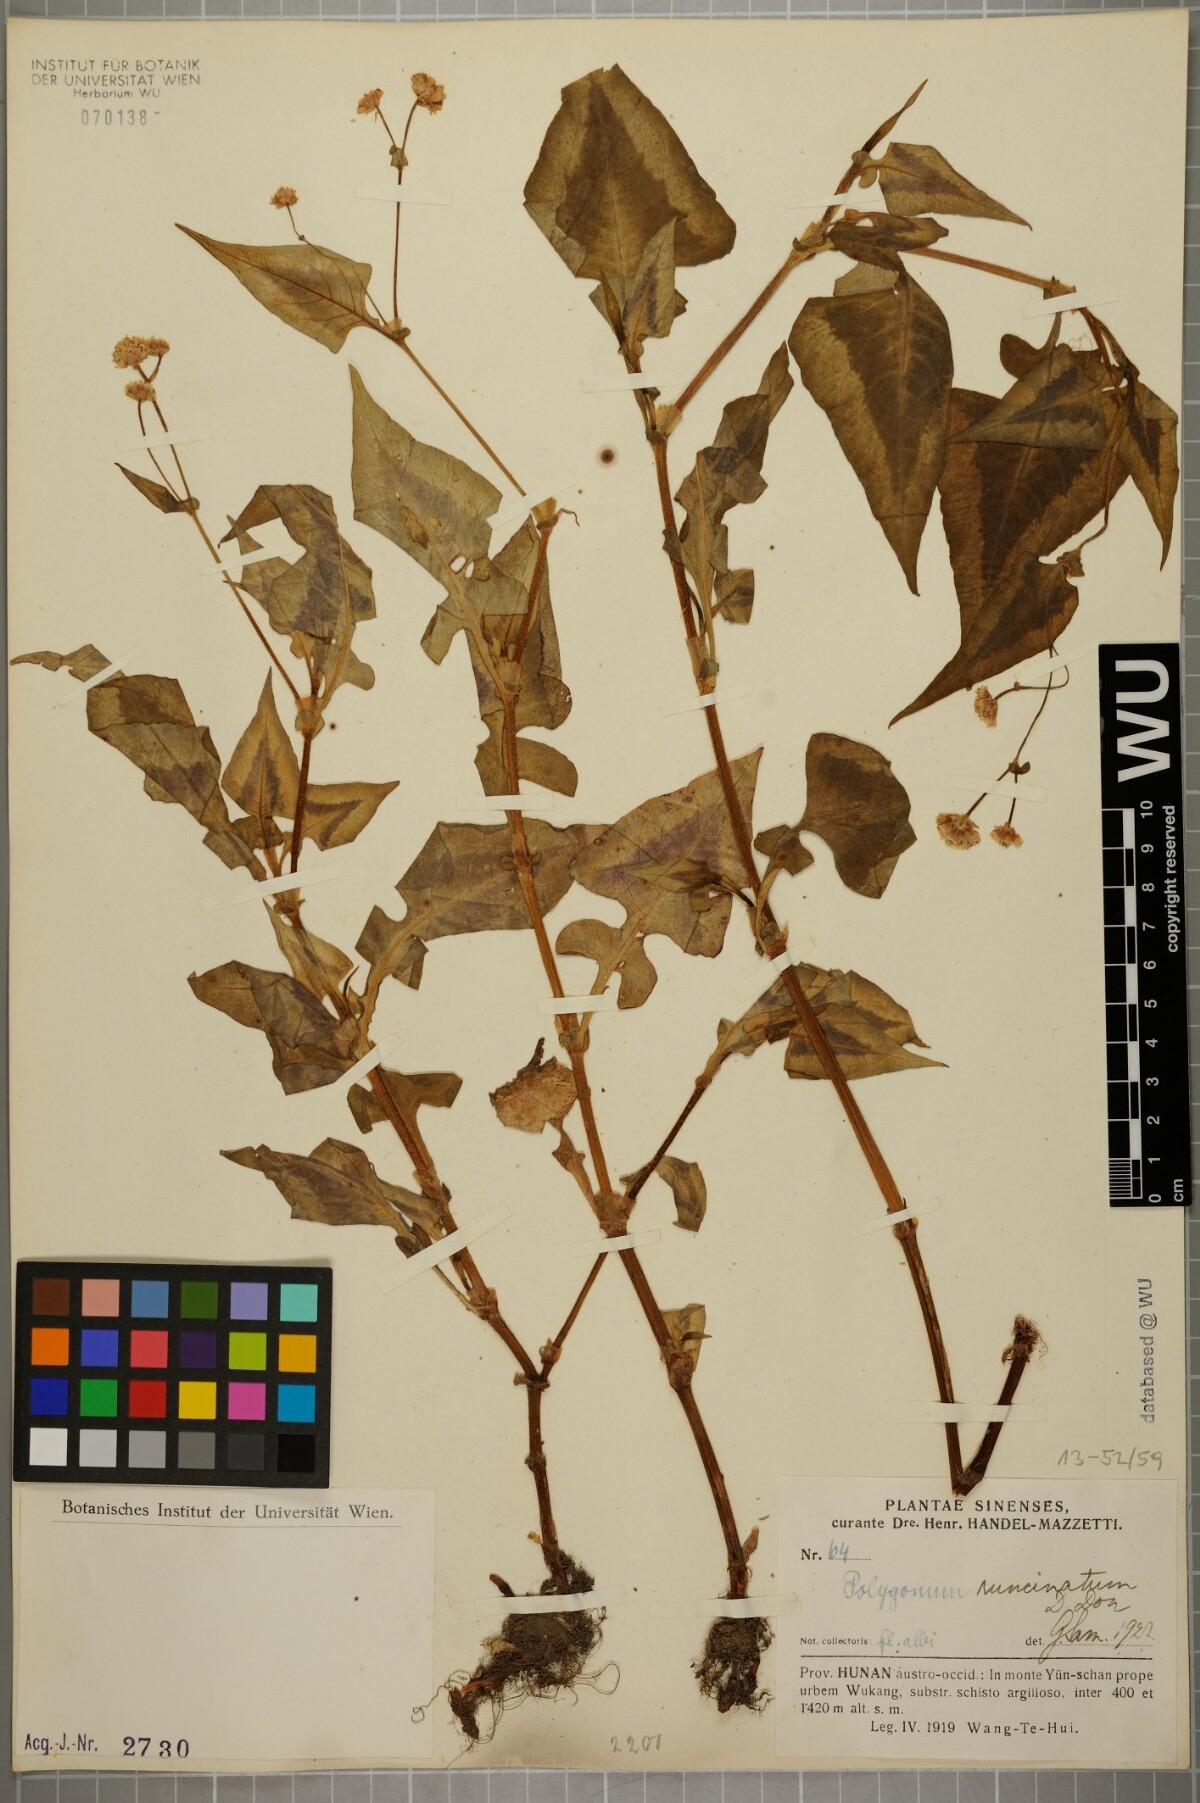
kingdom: Plantae
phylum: Tracheophyta
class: Magnoliopsida
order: Caryophyllales
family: Polygonaceae
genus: Persicaria
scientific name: Persicaria runcinata
